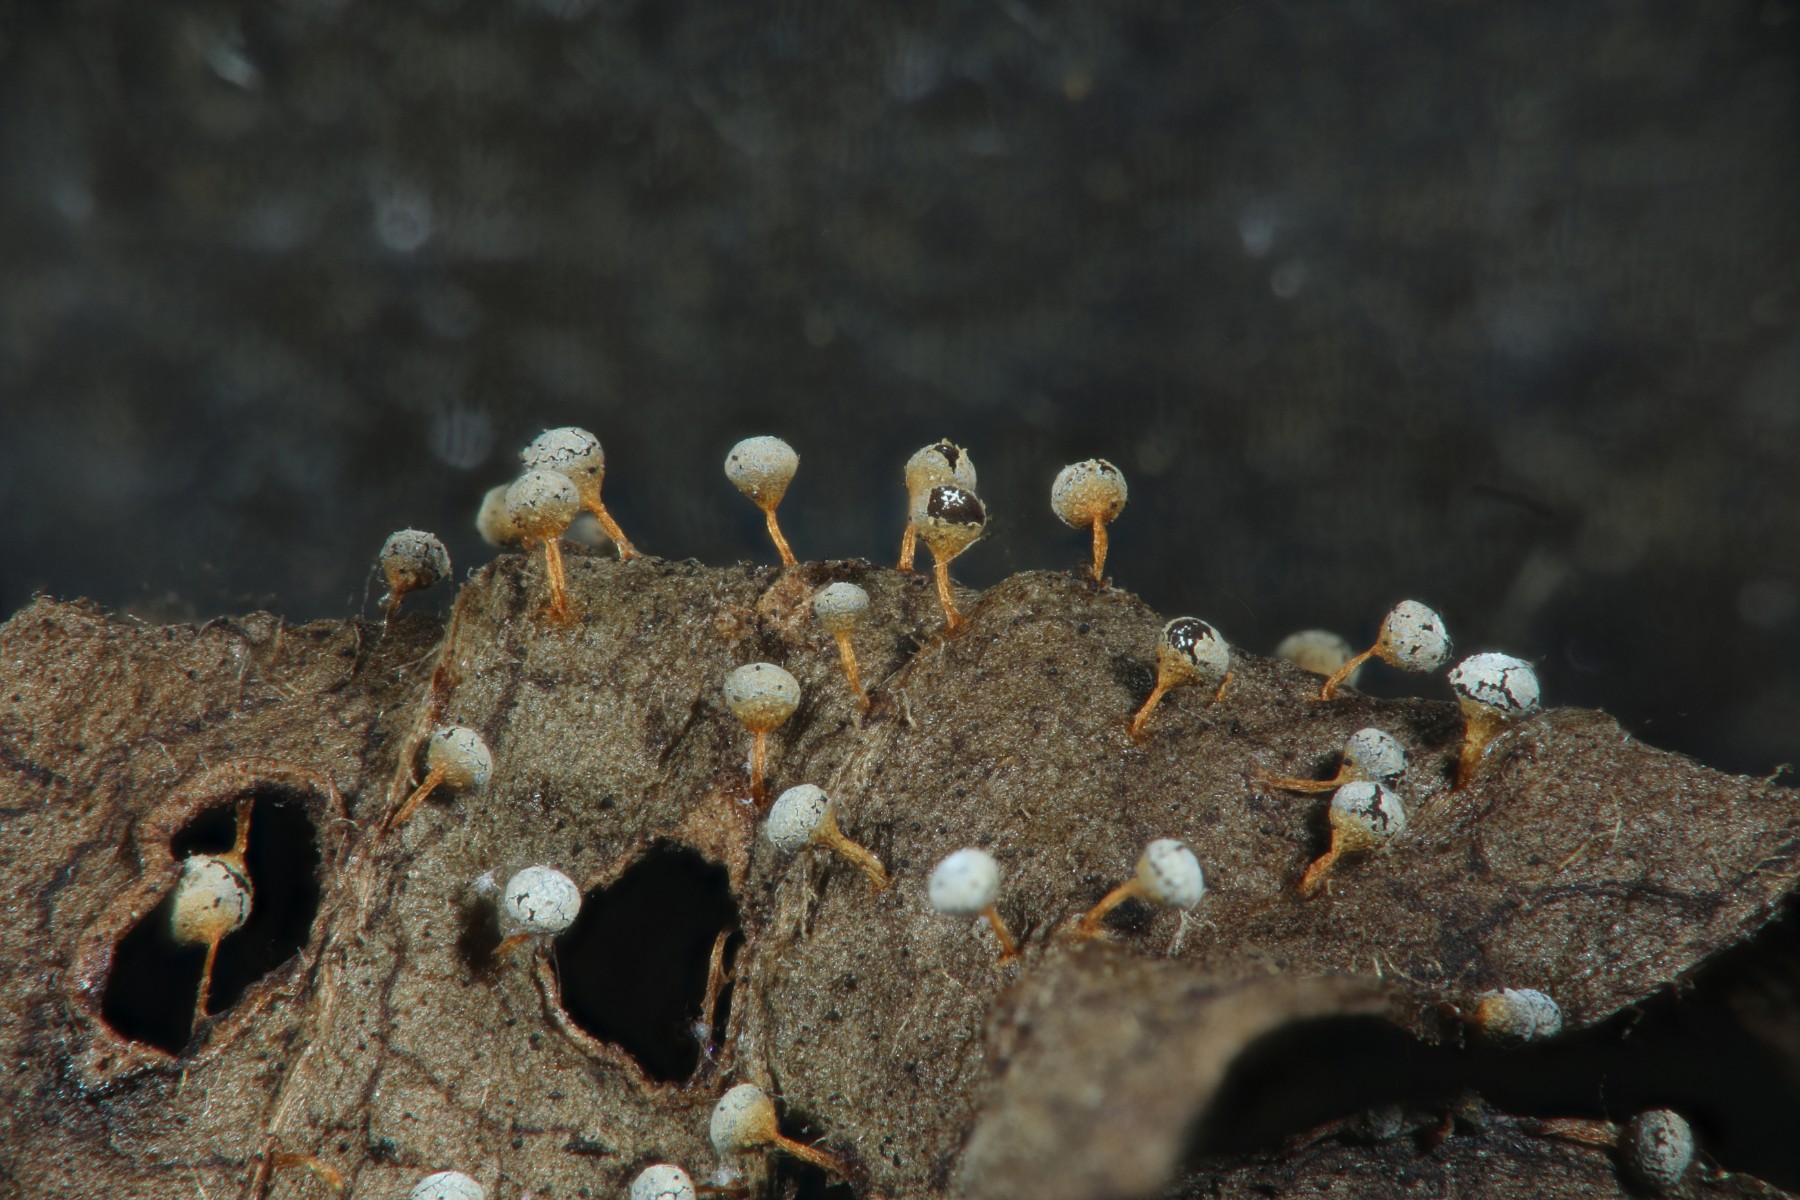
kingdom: Protozoa
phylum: Mycetozoa
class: Myxomycetes
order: Physarales
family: Physaraceae
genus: Craterium
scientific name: Craterium leucocephalum
